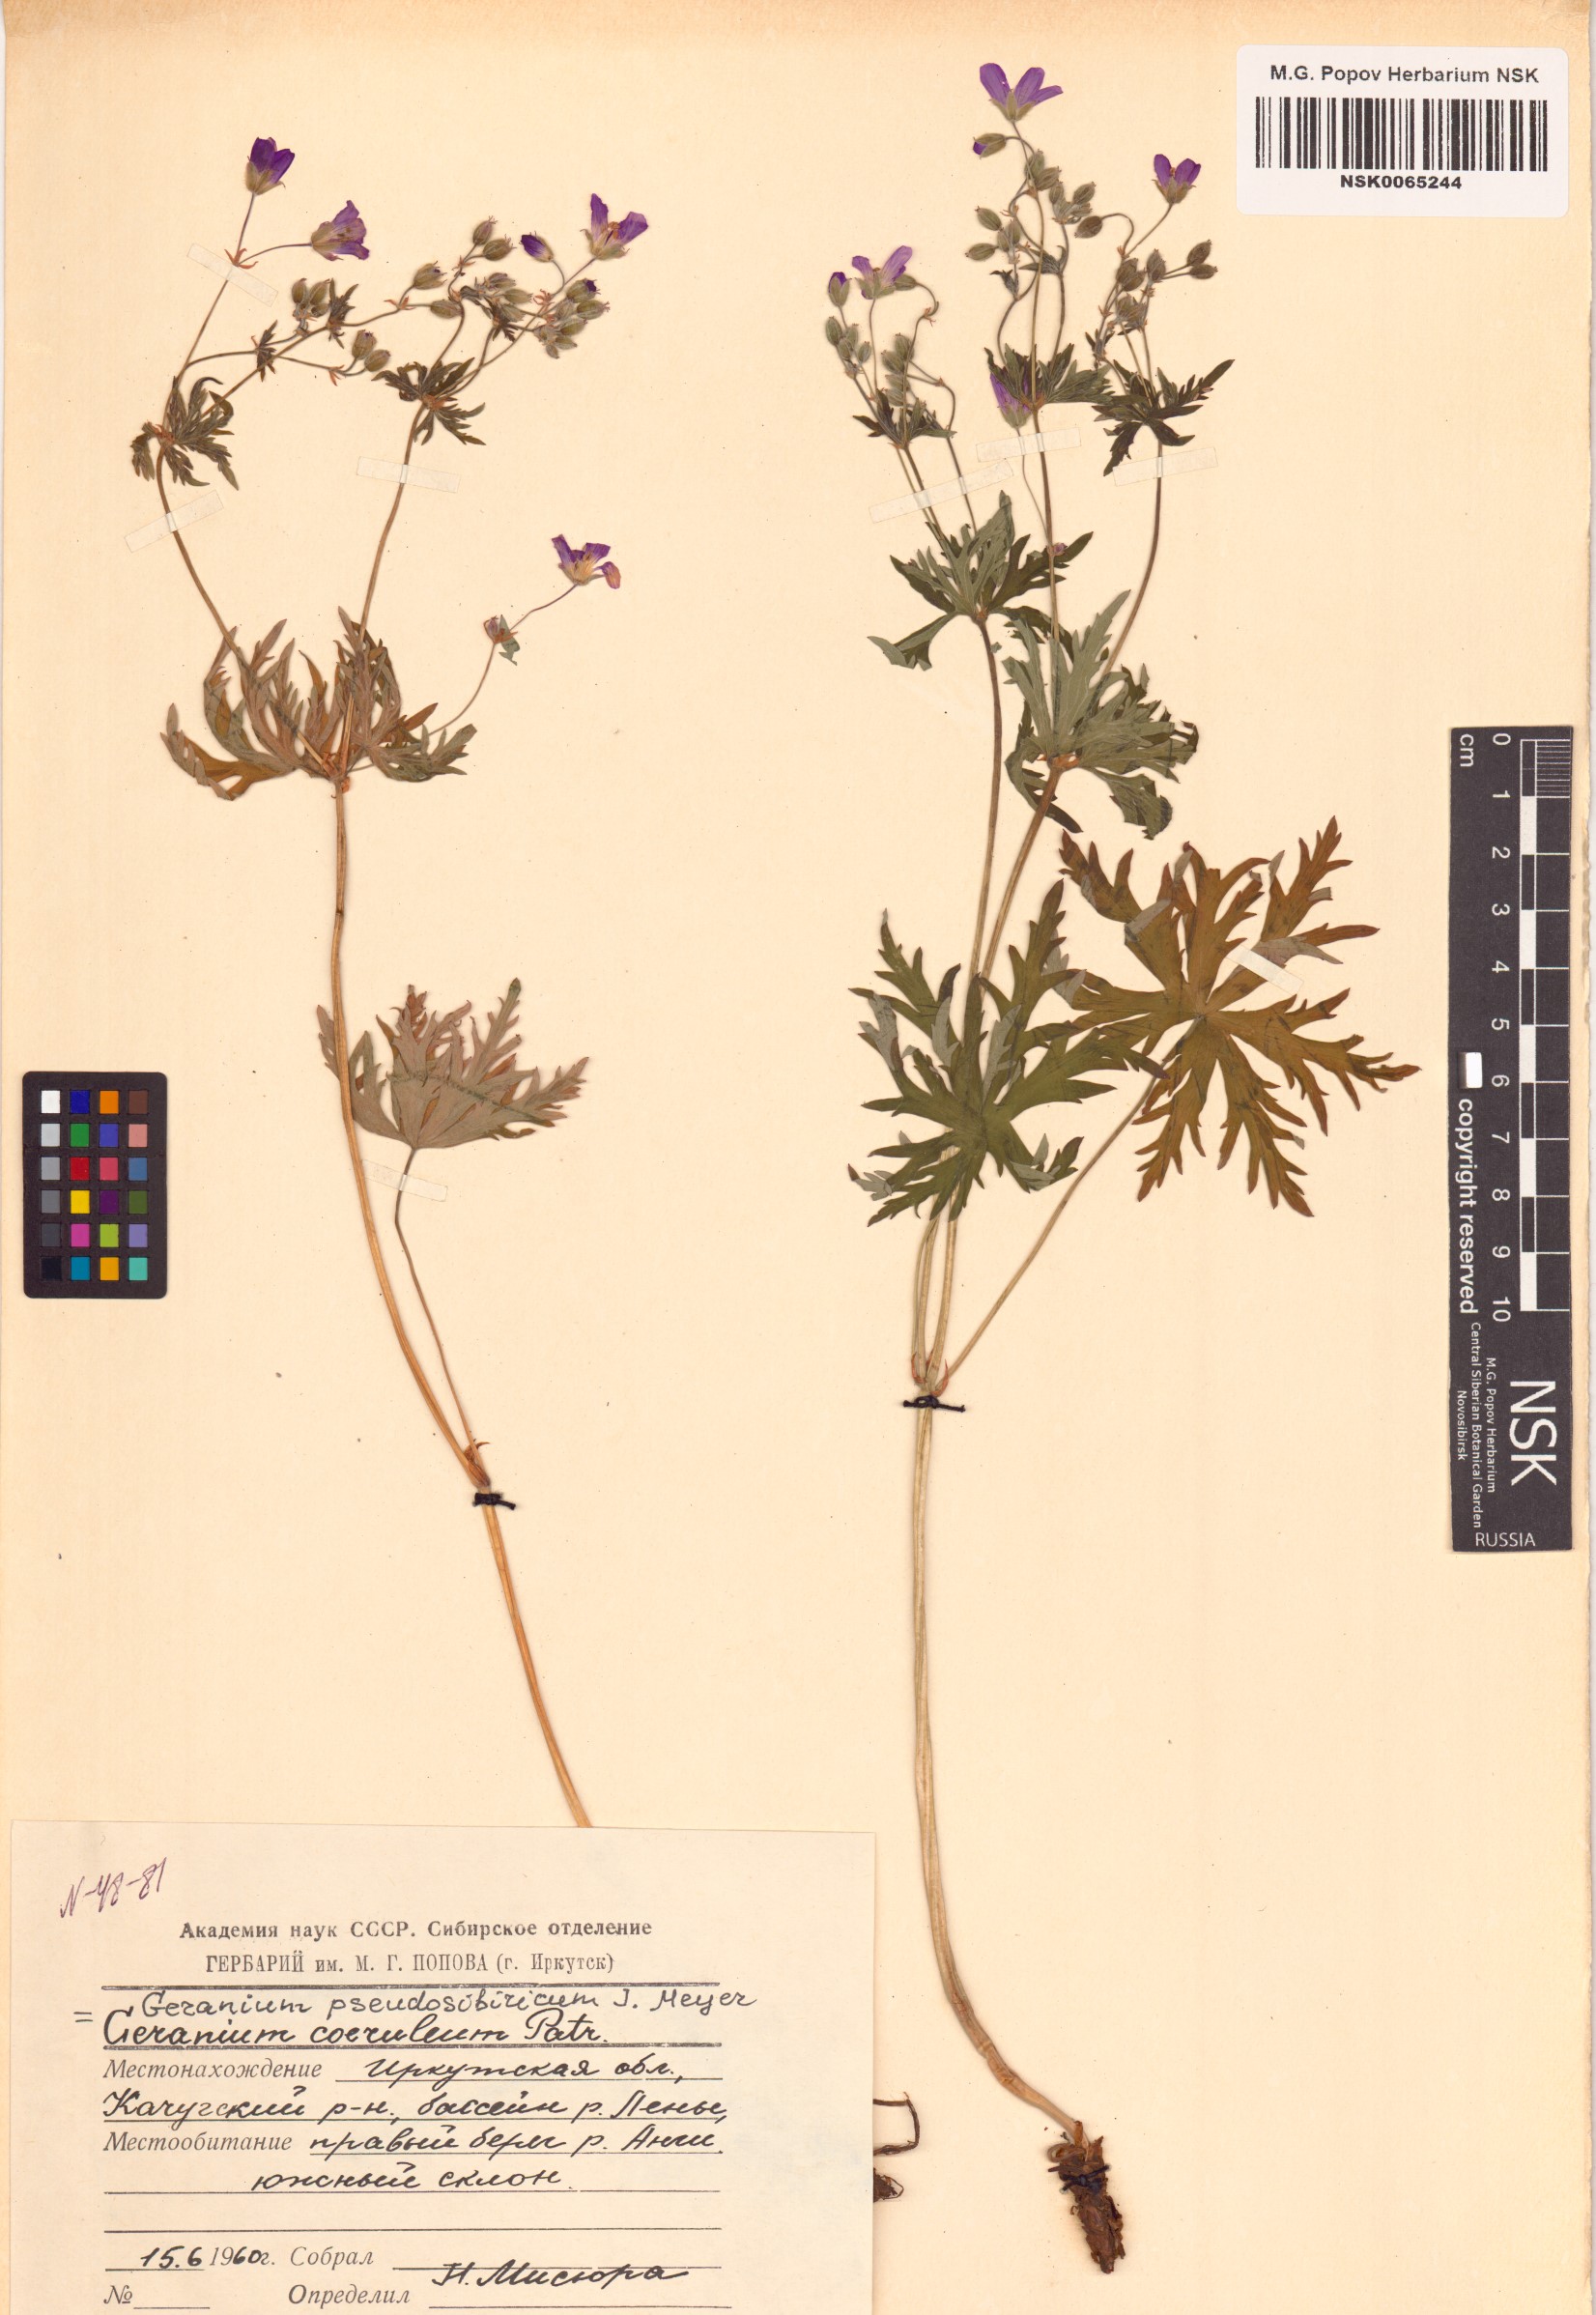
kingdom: Plantae
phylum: Tracheophyta
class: Magnoliopsida
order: Geraniales
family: Geraniaceae
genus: Geranium
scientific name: Geranium pseudosibiricum
